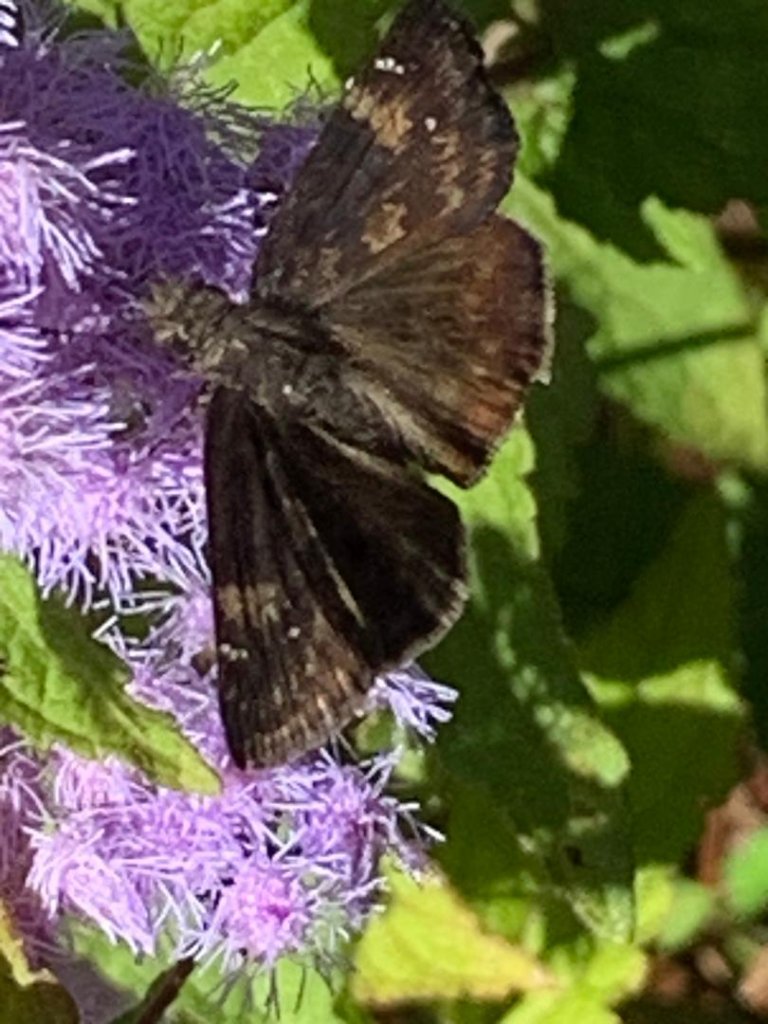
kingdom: Animalia
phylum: Arthropoda
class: Insecta
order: Lepidoptera
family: Hesperiidae
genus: Erynnis
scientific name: Erynnis zarucco
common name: Zarucco Duskywing
